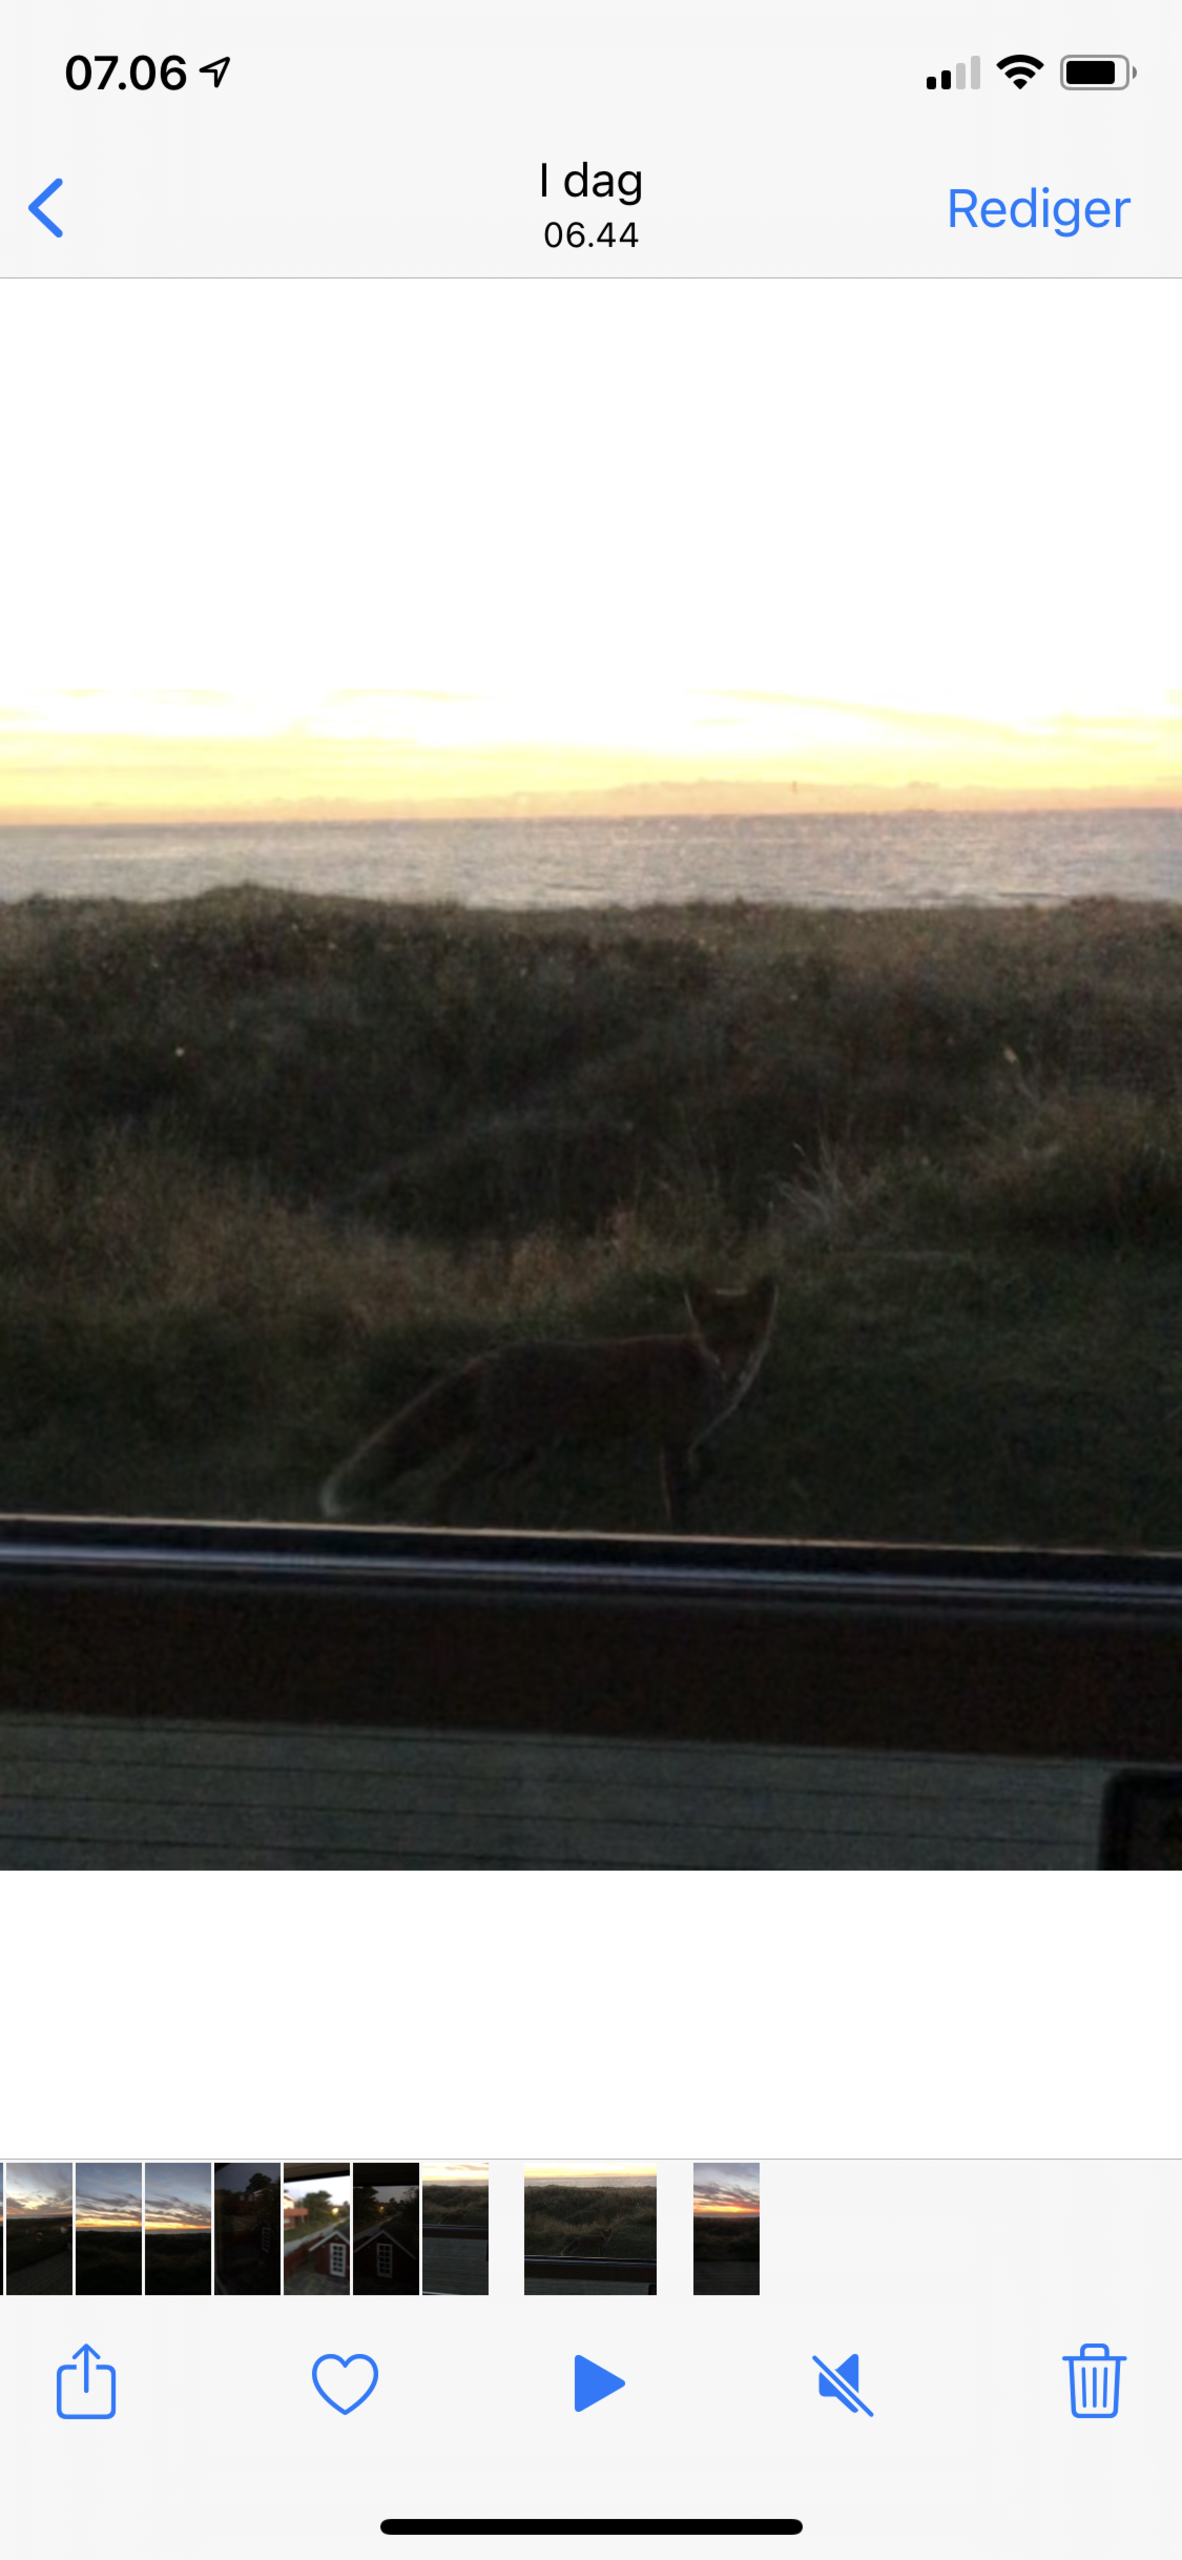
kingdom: Animalia
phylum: Chordata
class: Mammalia
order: Carnivora
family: Canidae
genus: Vulpes
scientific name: Vulpes vulpes
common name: Ræv
